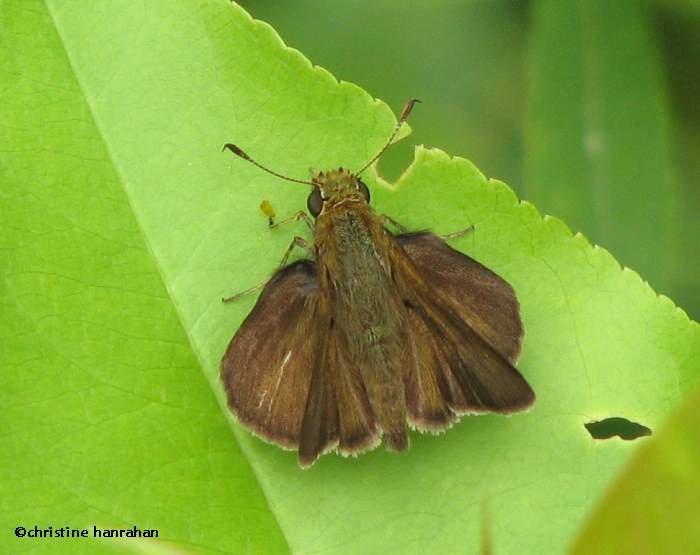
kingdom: Animalia
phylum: Arthropoda
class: Insecta
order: Lepidoptera
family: Hesperiidae
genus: Euphyes
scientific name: Euphyes vestris
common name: Dun Skipper
